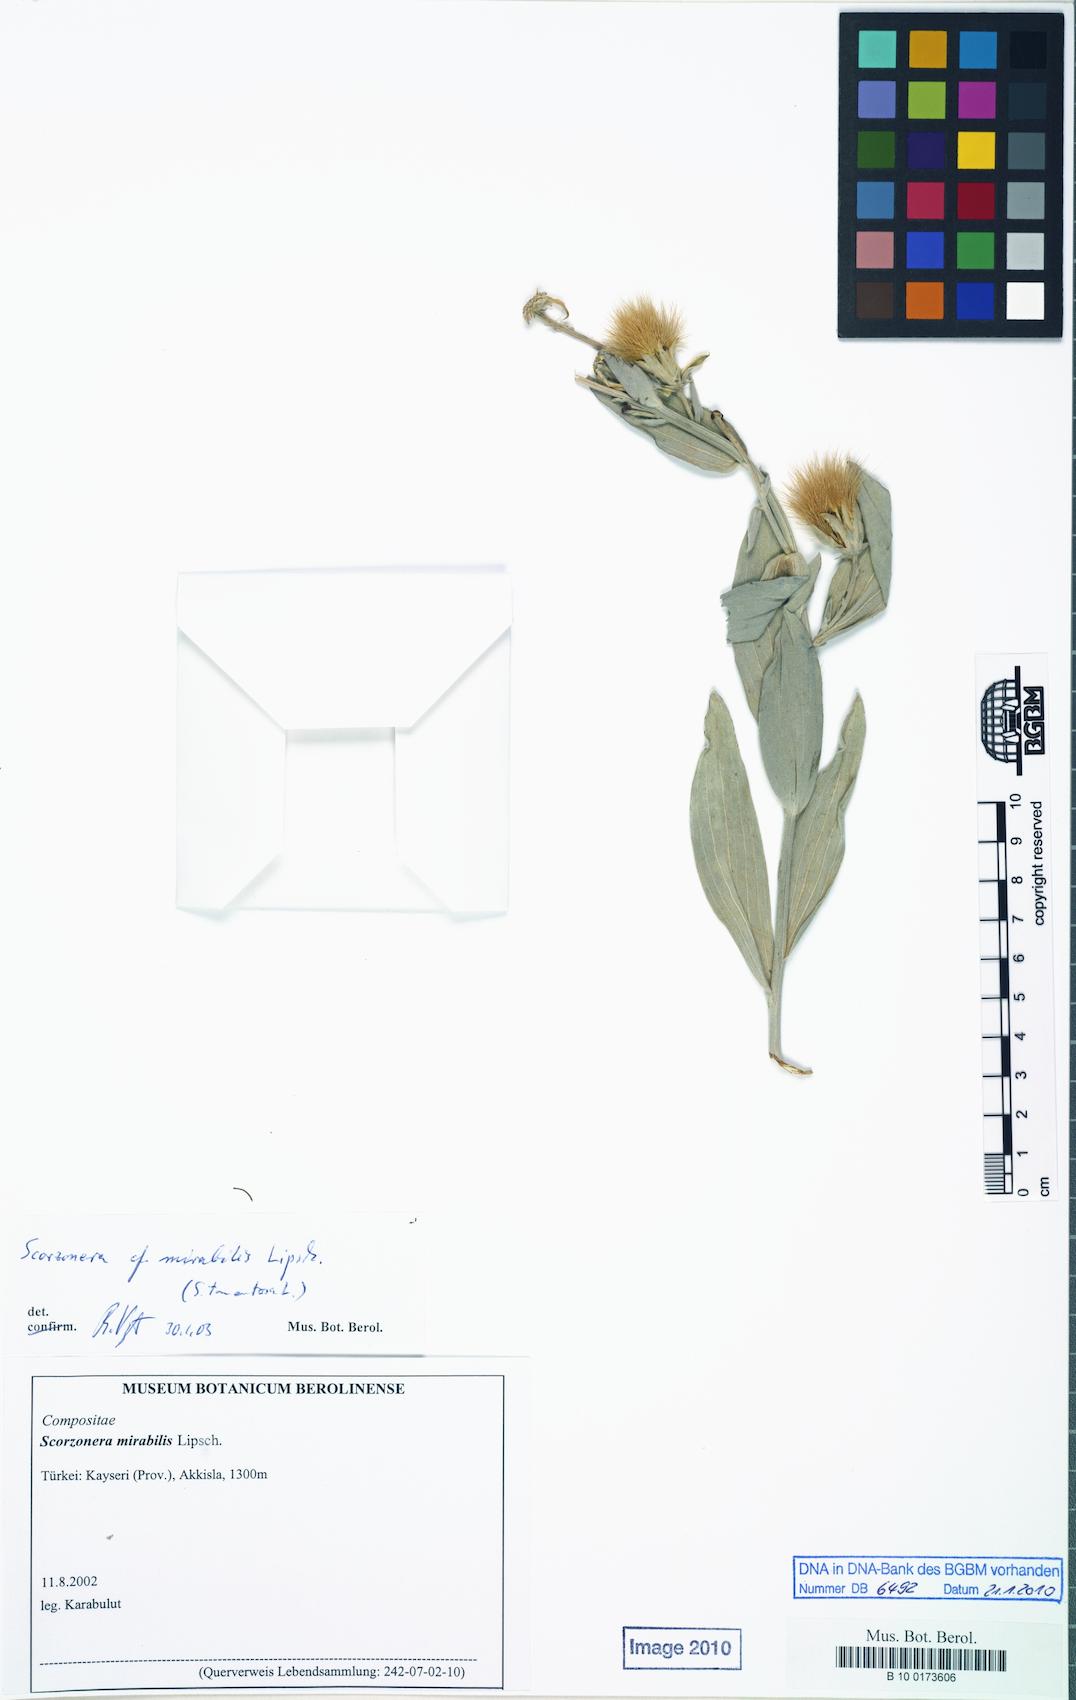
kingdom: Plantae
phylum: Tracheophyta
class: Magnoliopsida
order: Asterales
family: Asteraceae
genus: Guneria
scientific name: Guneria mirabilis
